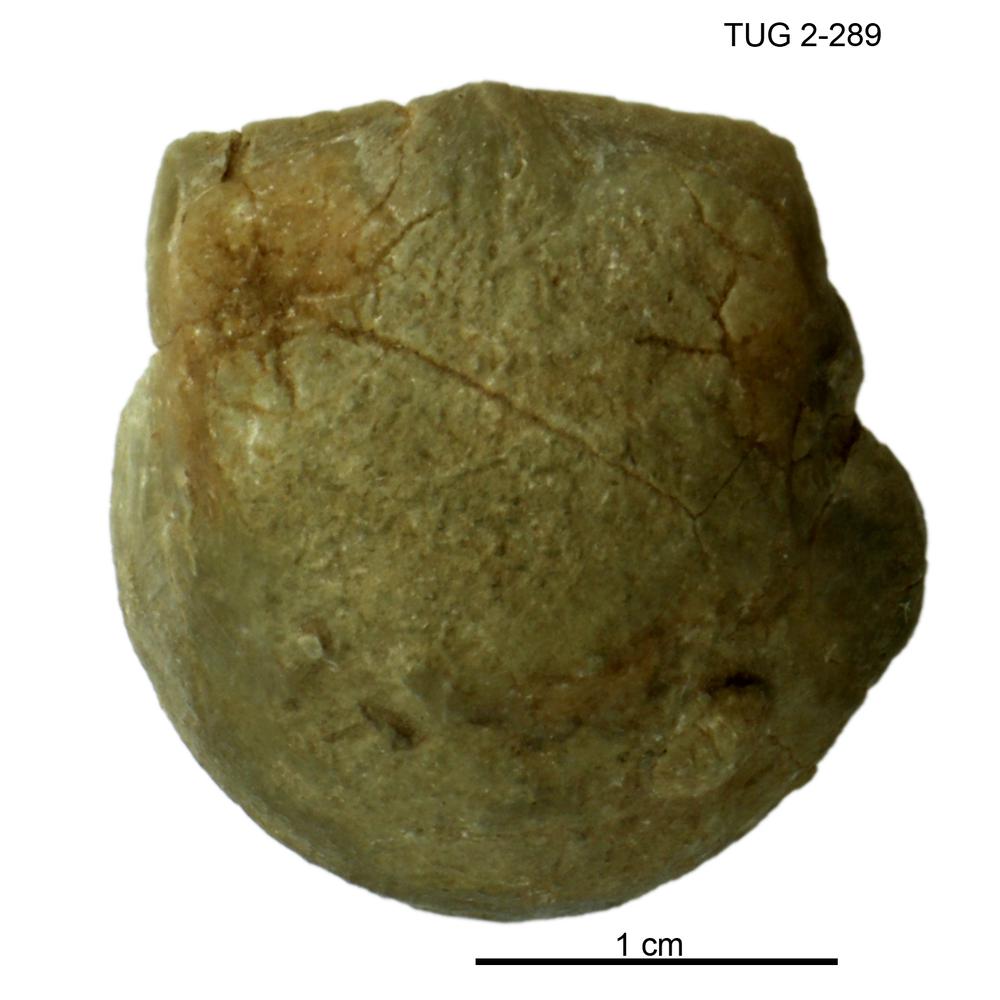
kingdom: Animalia
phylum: Brachiopoda
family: Strophomenidae
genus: Panderites
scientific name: Panderites Plectambonites imbrex
